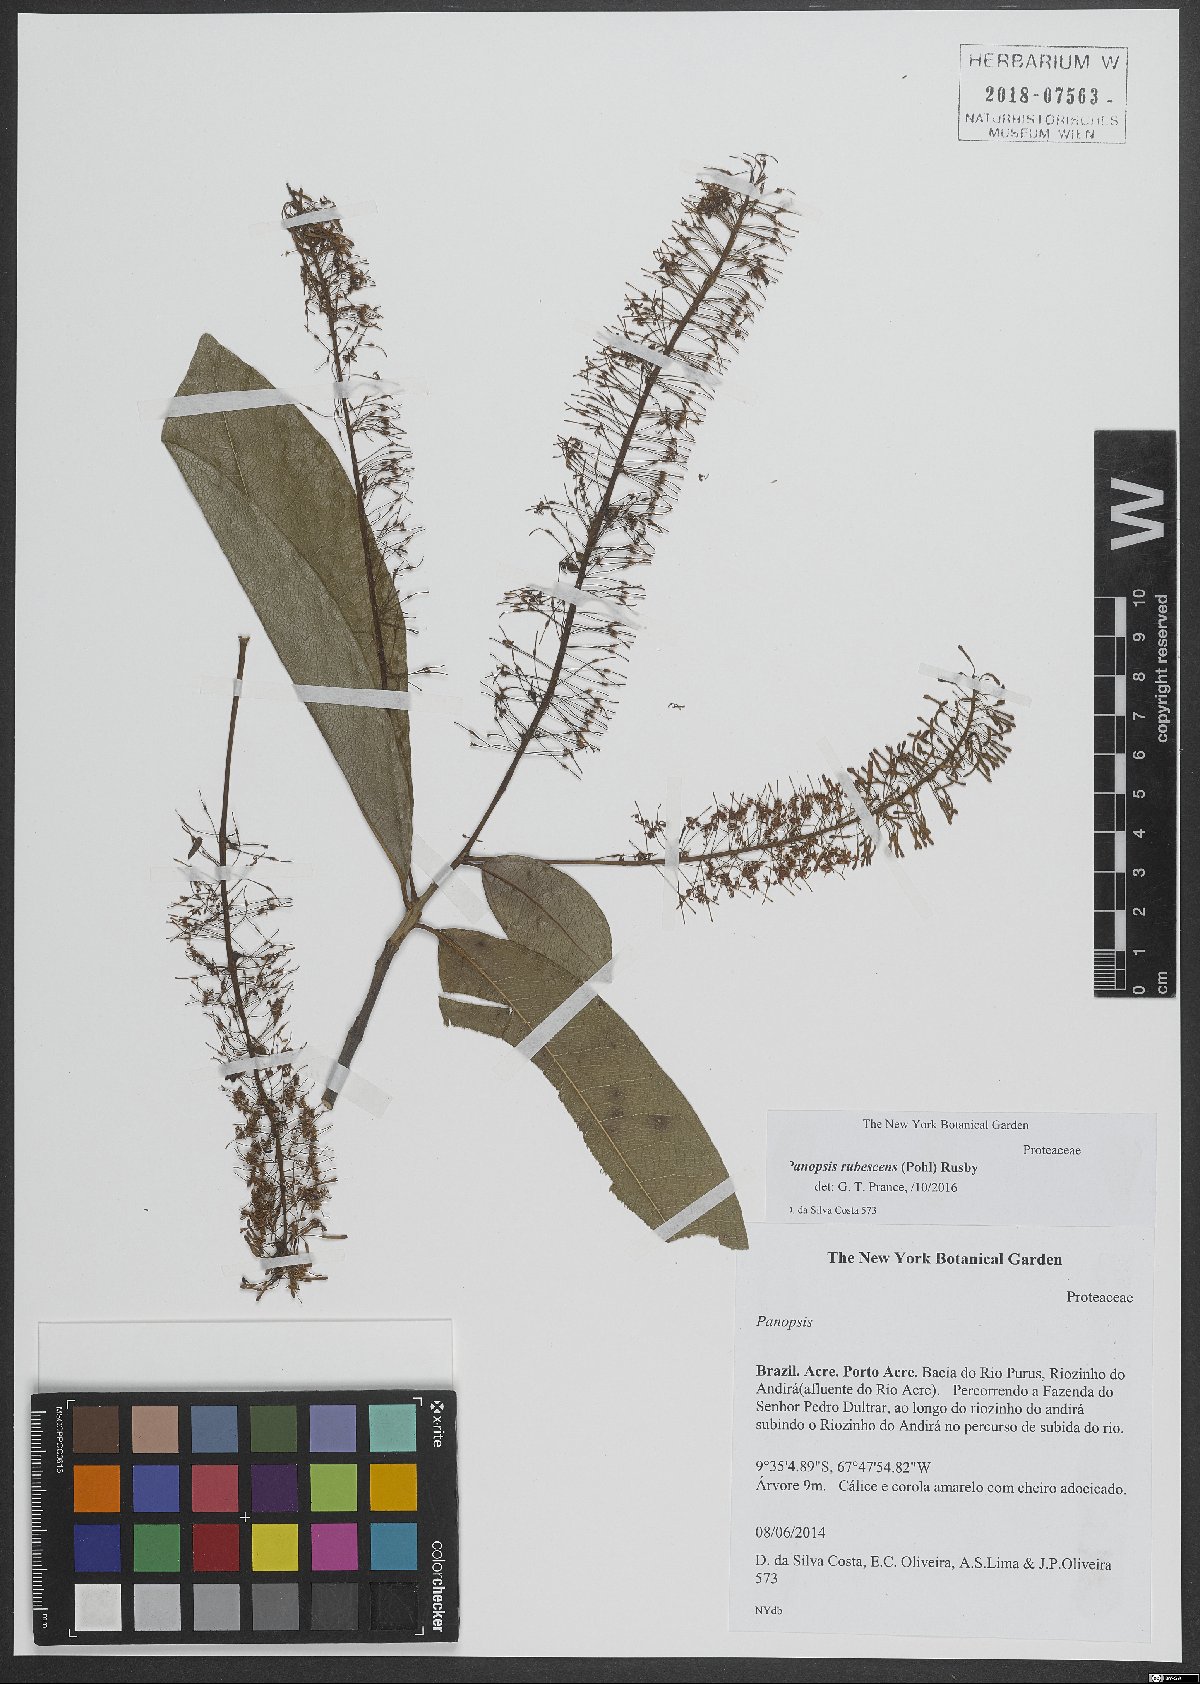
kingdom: Plantae
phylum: Tracheophyta
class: Magnoliopsida
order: Proteales
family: Proteaceae
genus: Panopsis
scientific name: Panopsis rubescens
